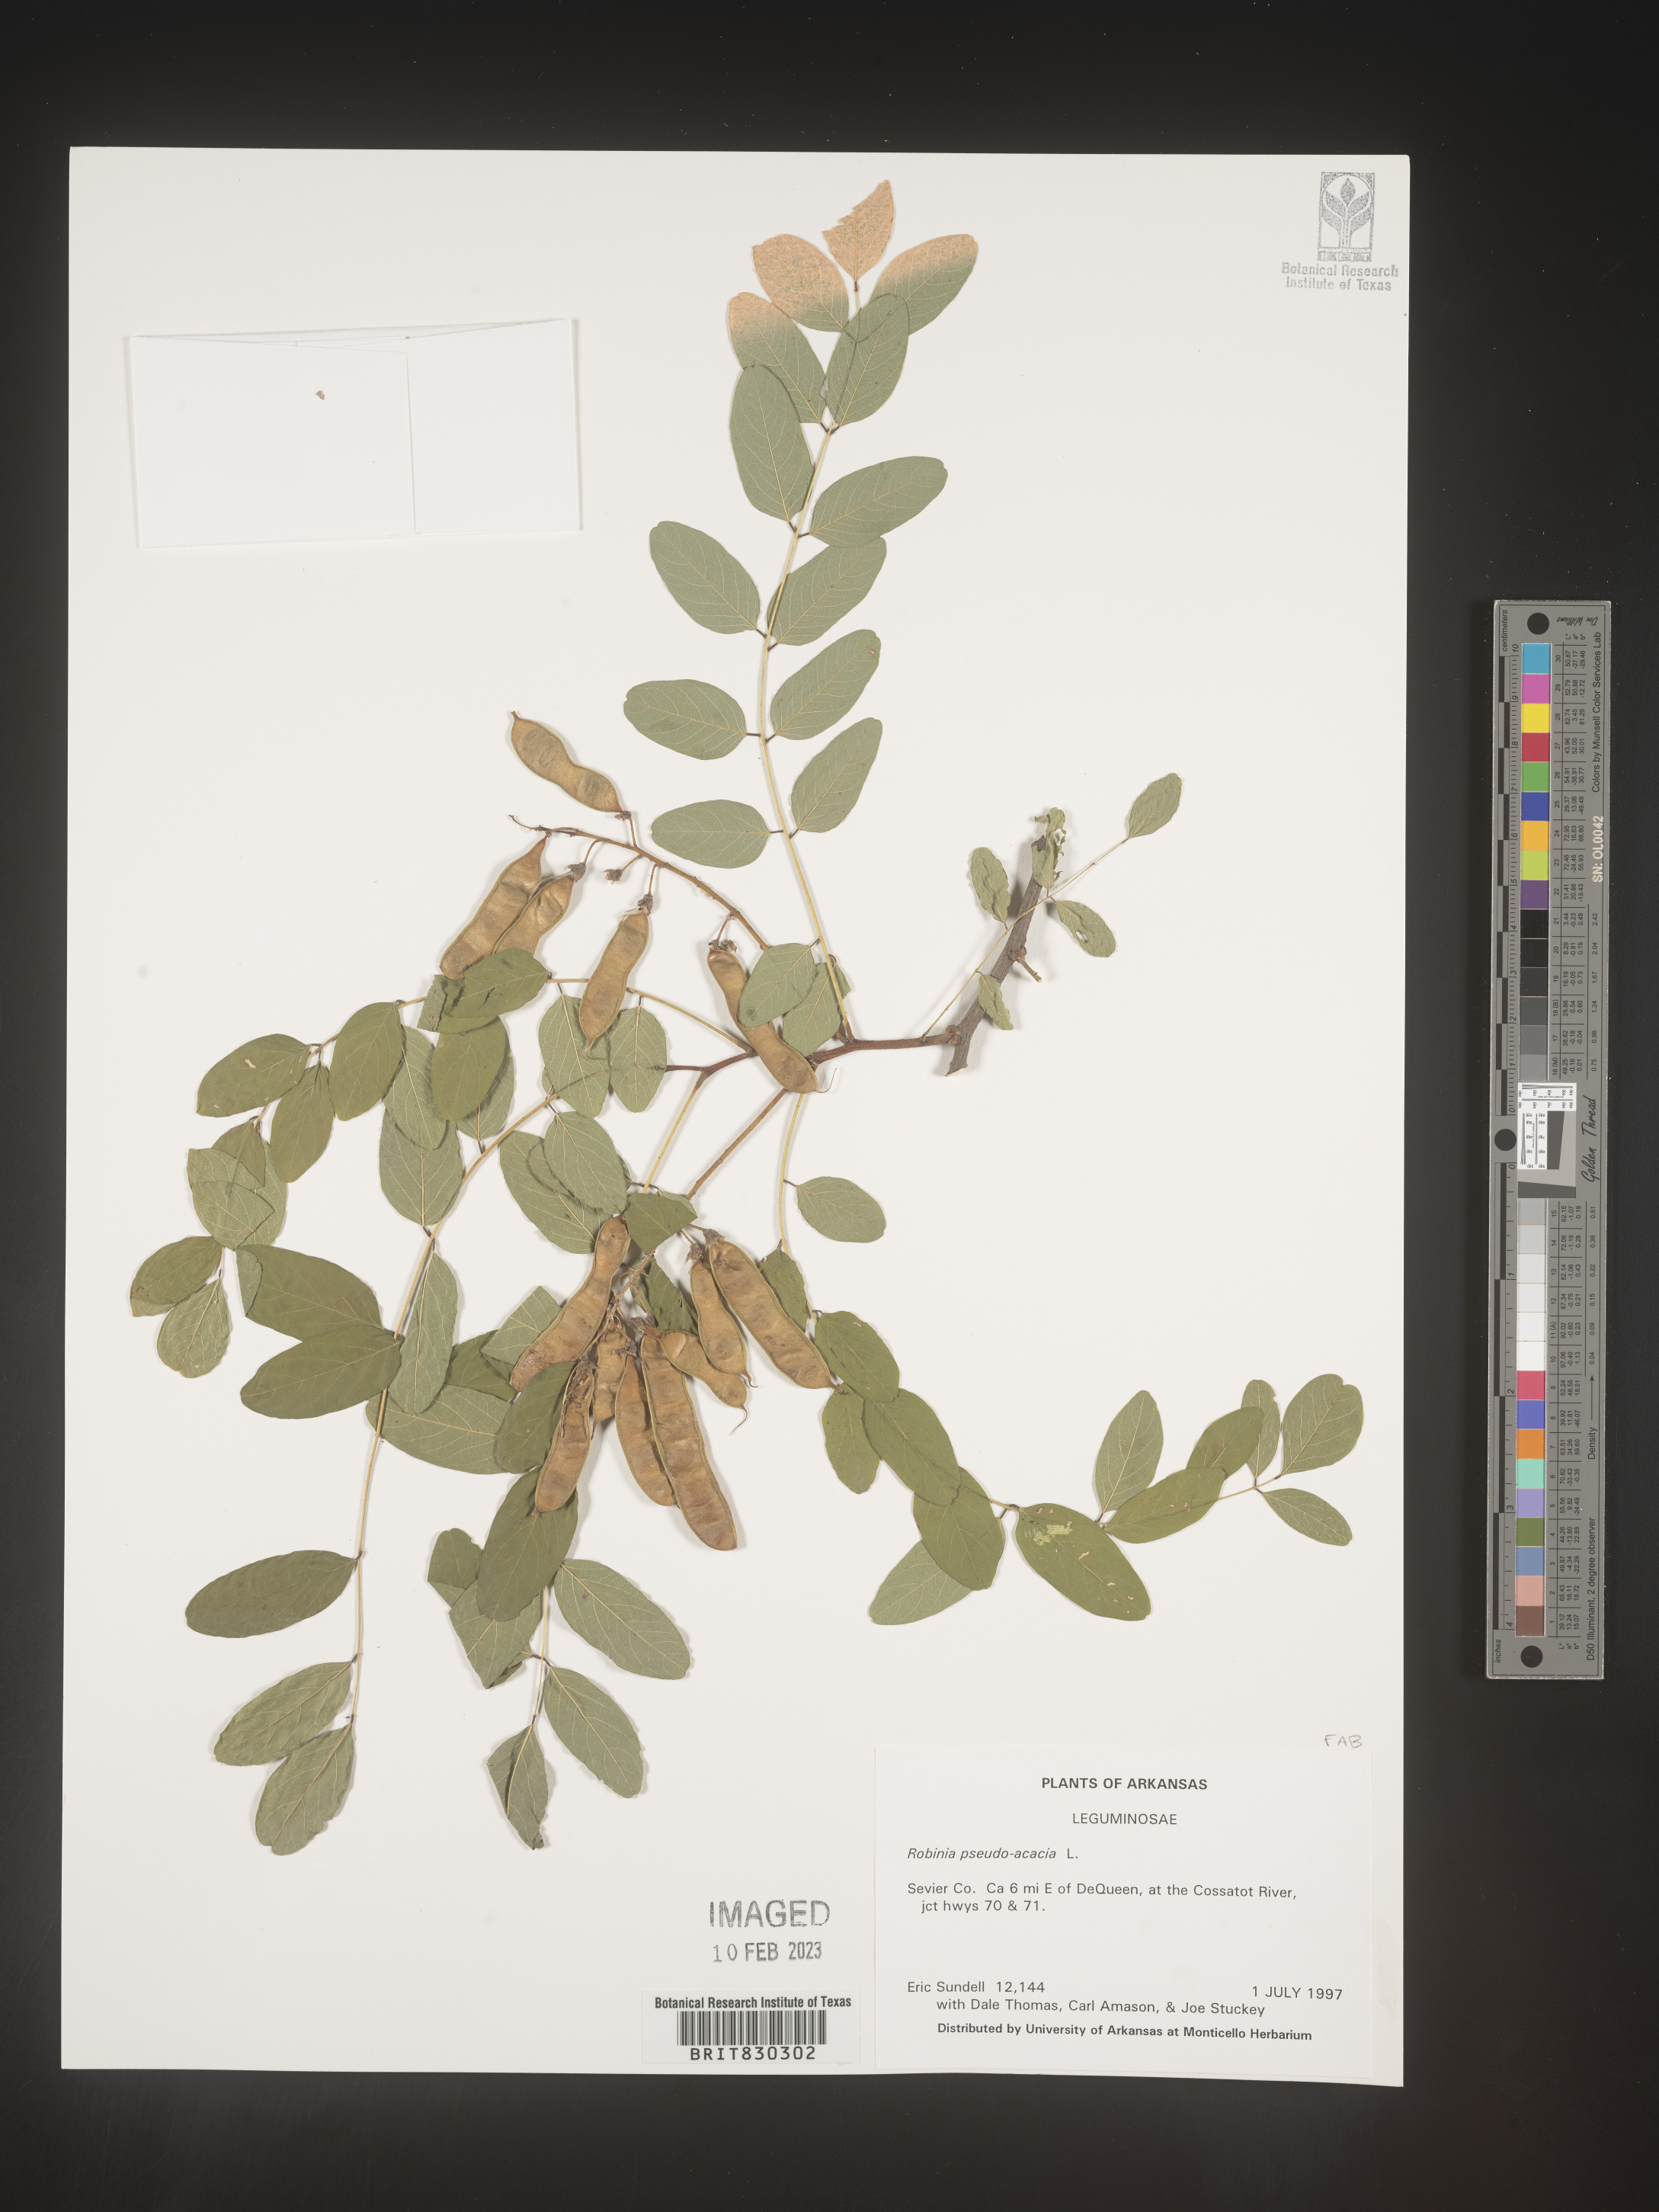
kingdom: Plantae
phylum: Tracheophyta
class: Magnoliopsida
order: Fabales
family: Fabaceae
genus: Robinia
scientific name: Robinia pseudoacacia
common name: Black locust
